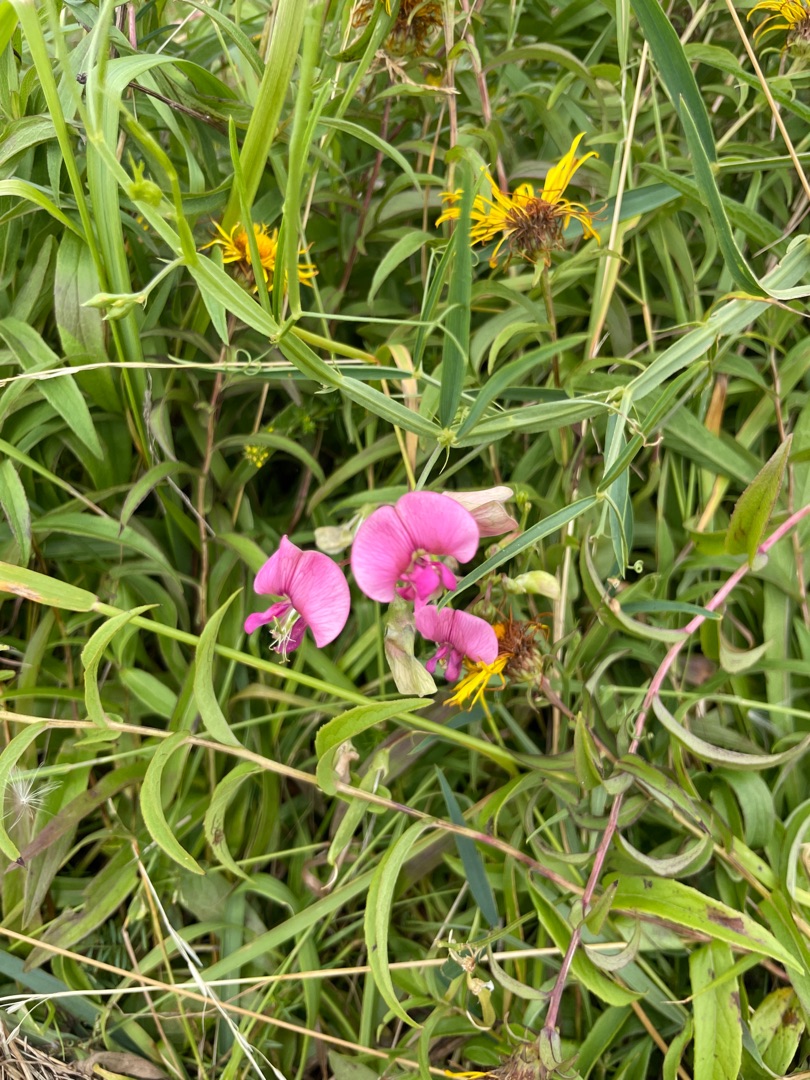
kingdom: Plantae
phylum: Tracheophyta
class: Magnoliopsida
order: Fabales
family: Fabaceae
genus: Lathyrus
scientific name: Lathyrus sylvestris
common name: Skov-fladbælg
